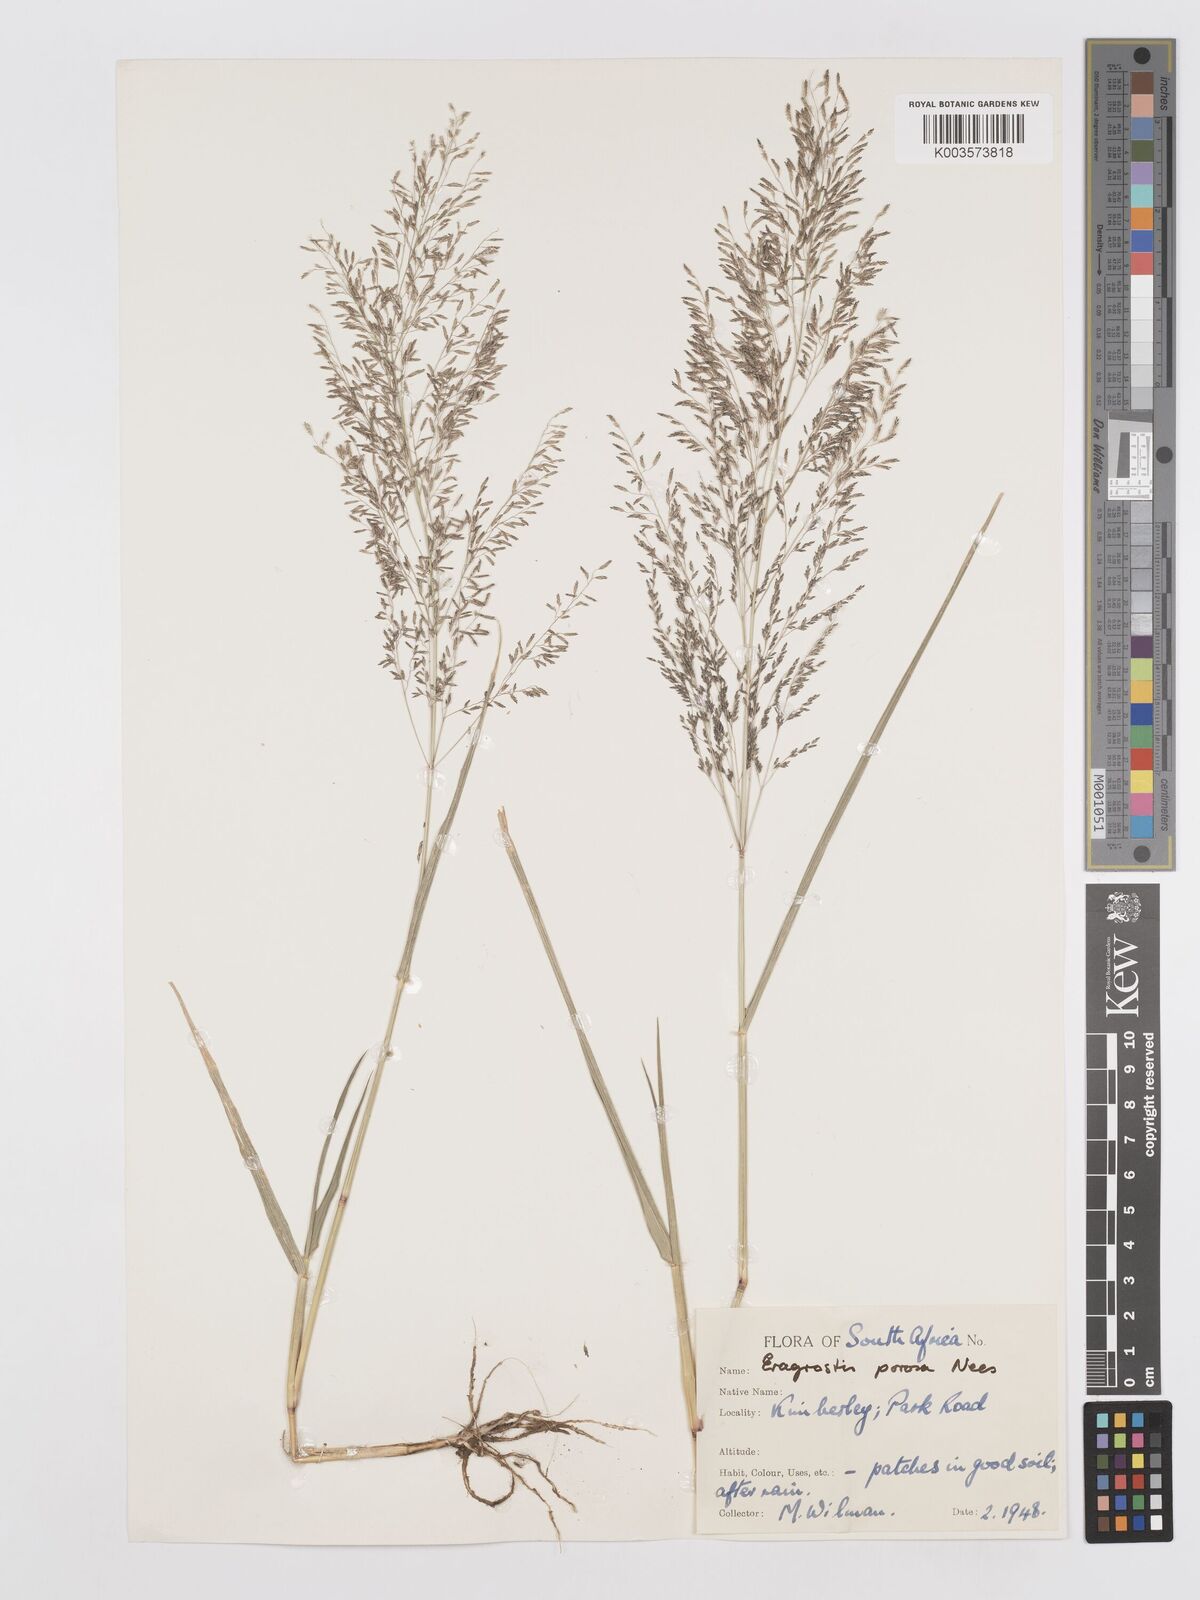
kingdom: Plantae
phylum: Tracheophyta
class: Liliopsida
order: Poales
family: Poaceae
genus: Eragrostis
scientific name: Eragrostis porosa
